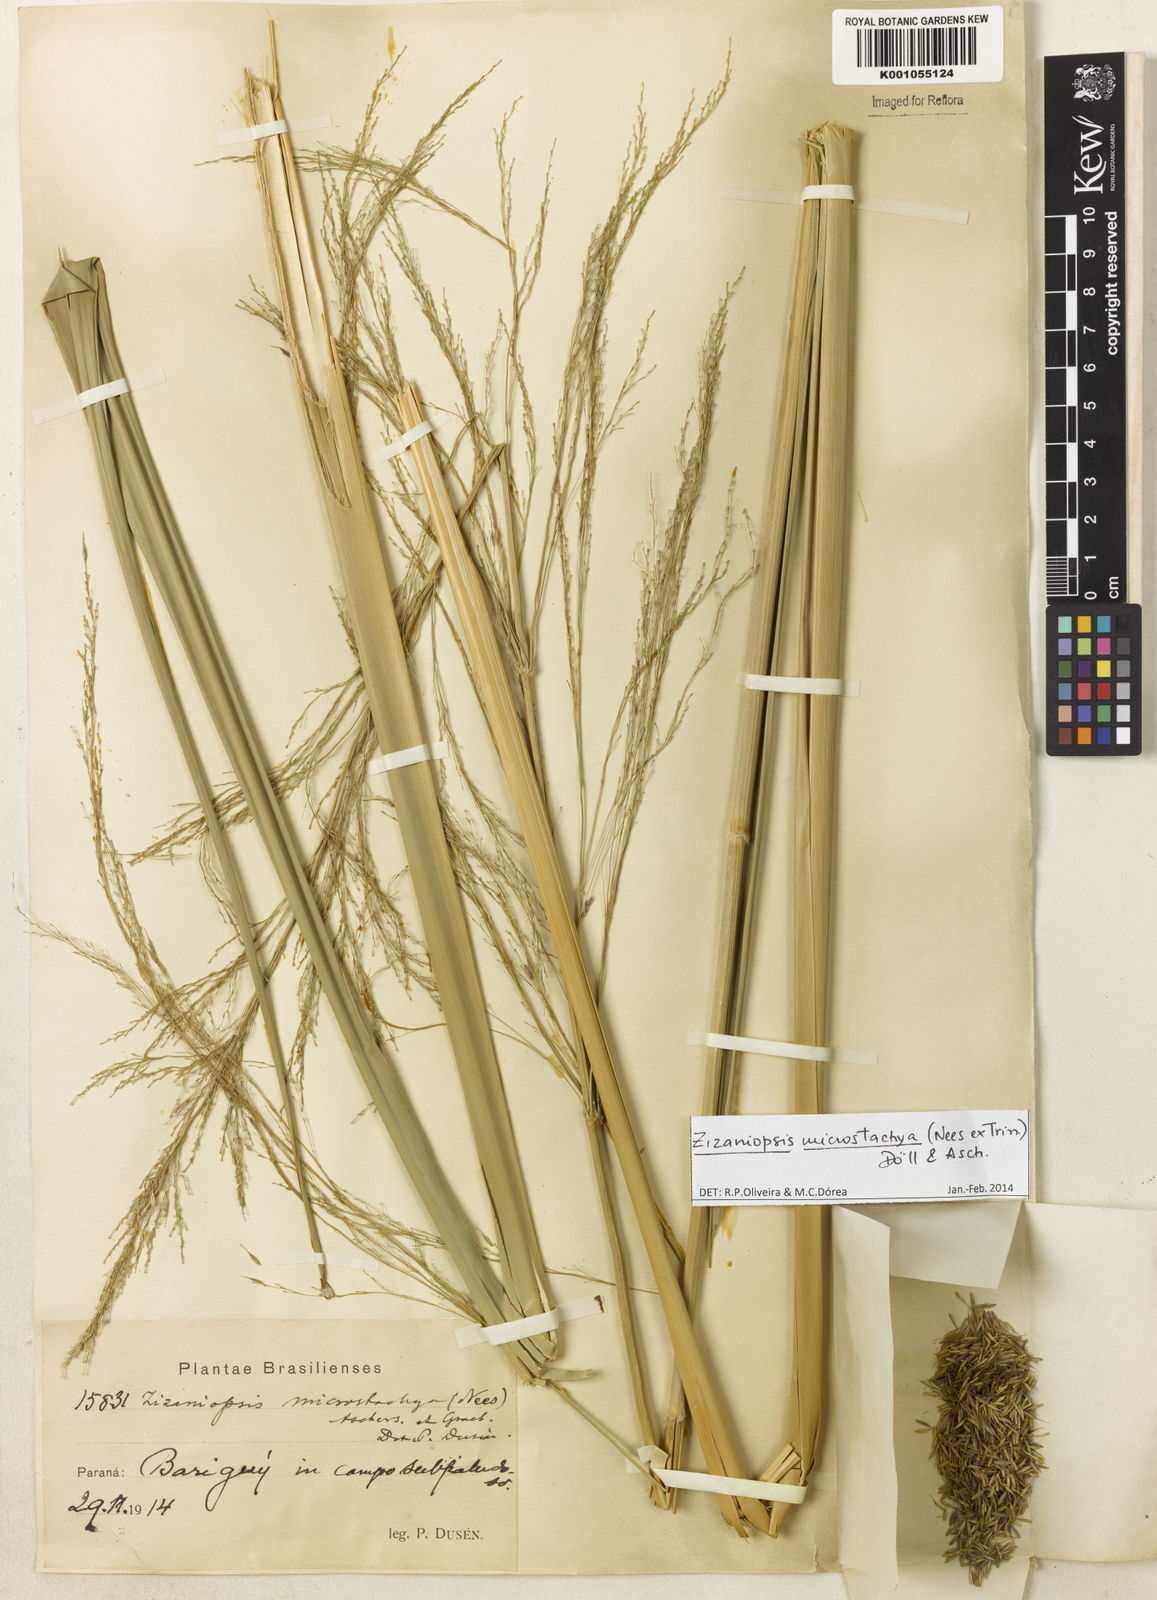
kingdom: Plantae
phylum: Tracheophyta
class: Liliopsida
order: Poales
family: Poaceae
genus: Zizaniopsis
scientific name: Zizaniopsis
